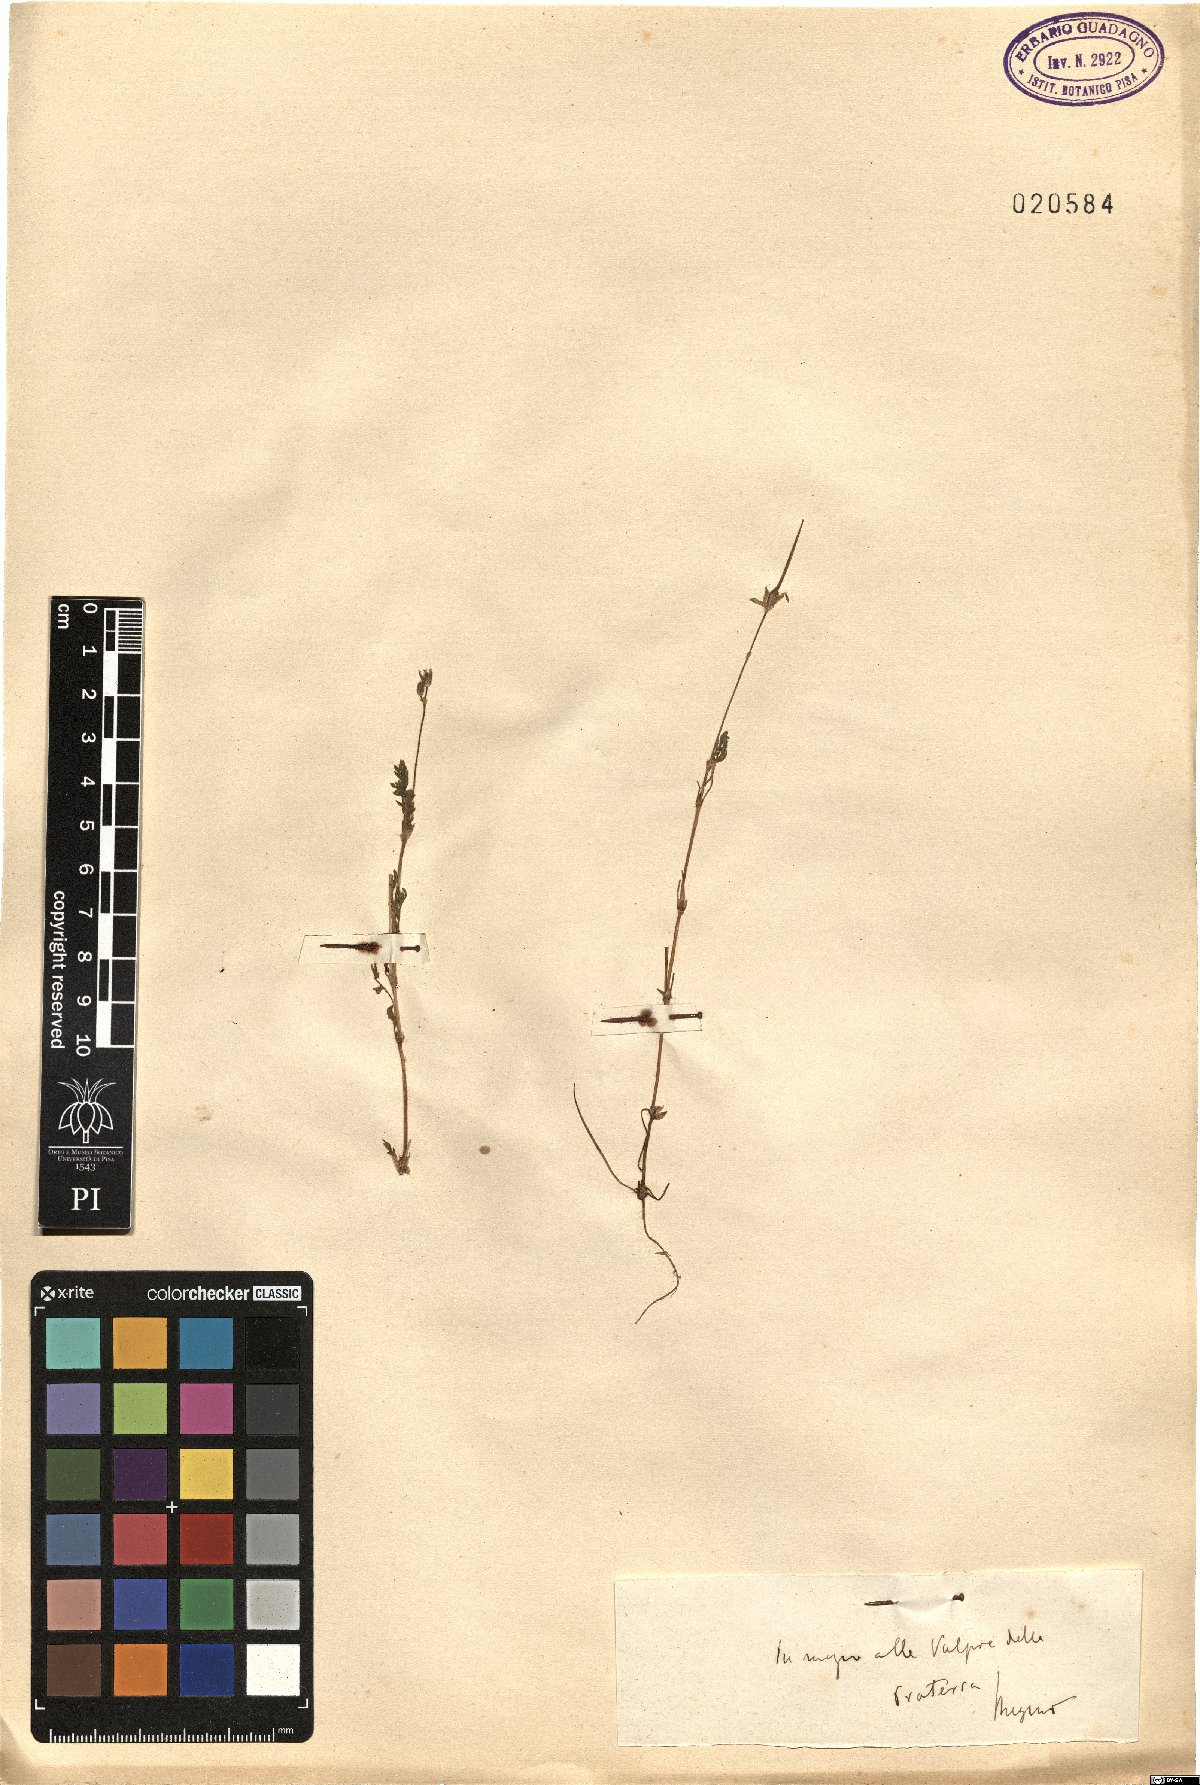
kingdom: Plantae
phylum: Tracheophyta
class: Magnoliopsida
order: Geraniales
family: Geraniaceae
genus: Erodium
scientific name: Erodium
